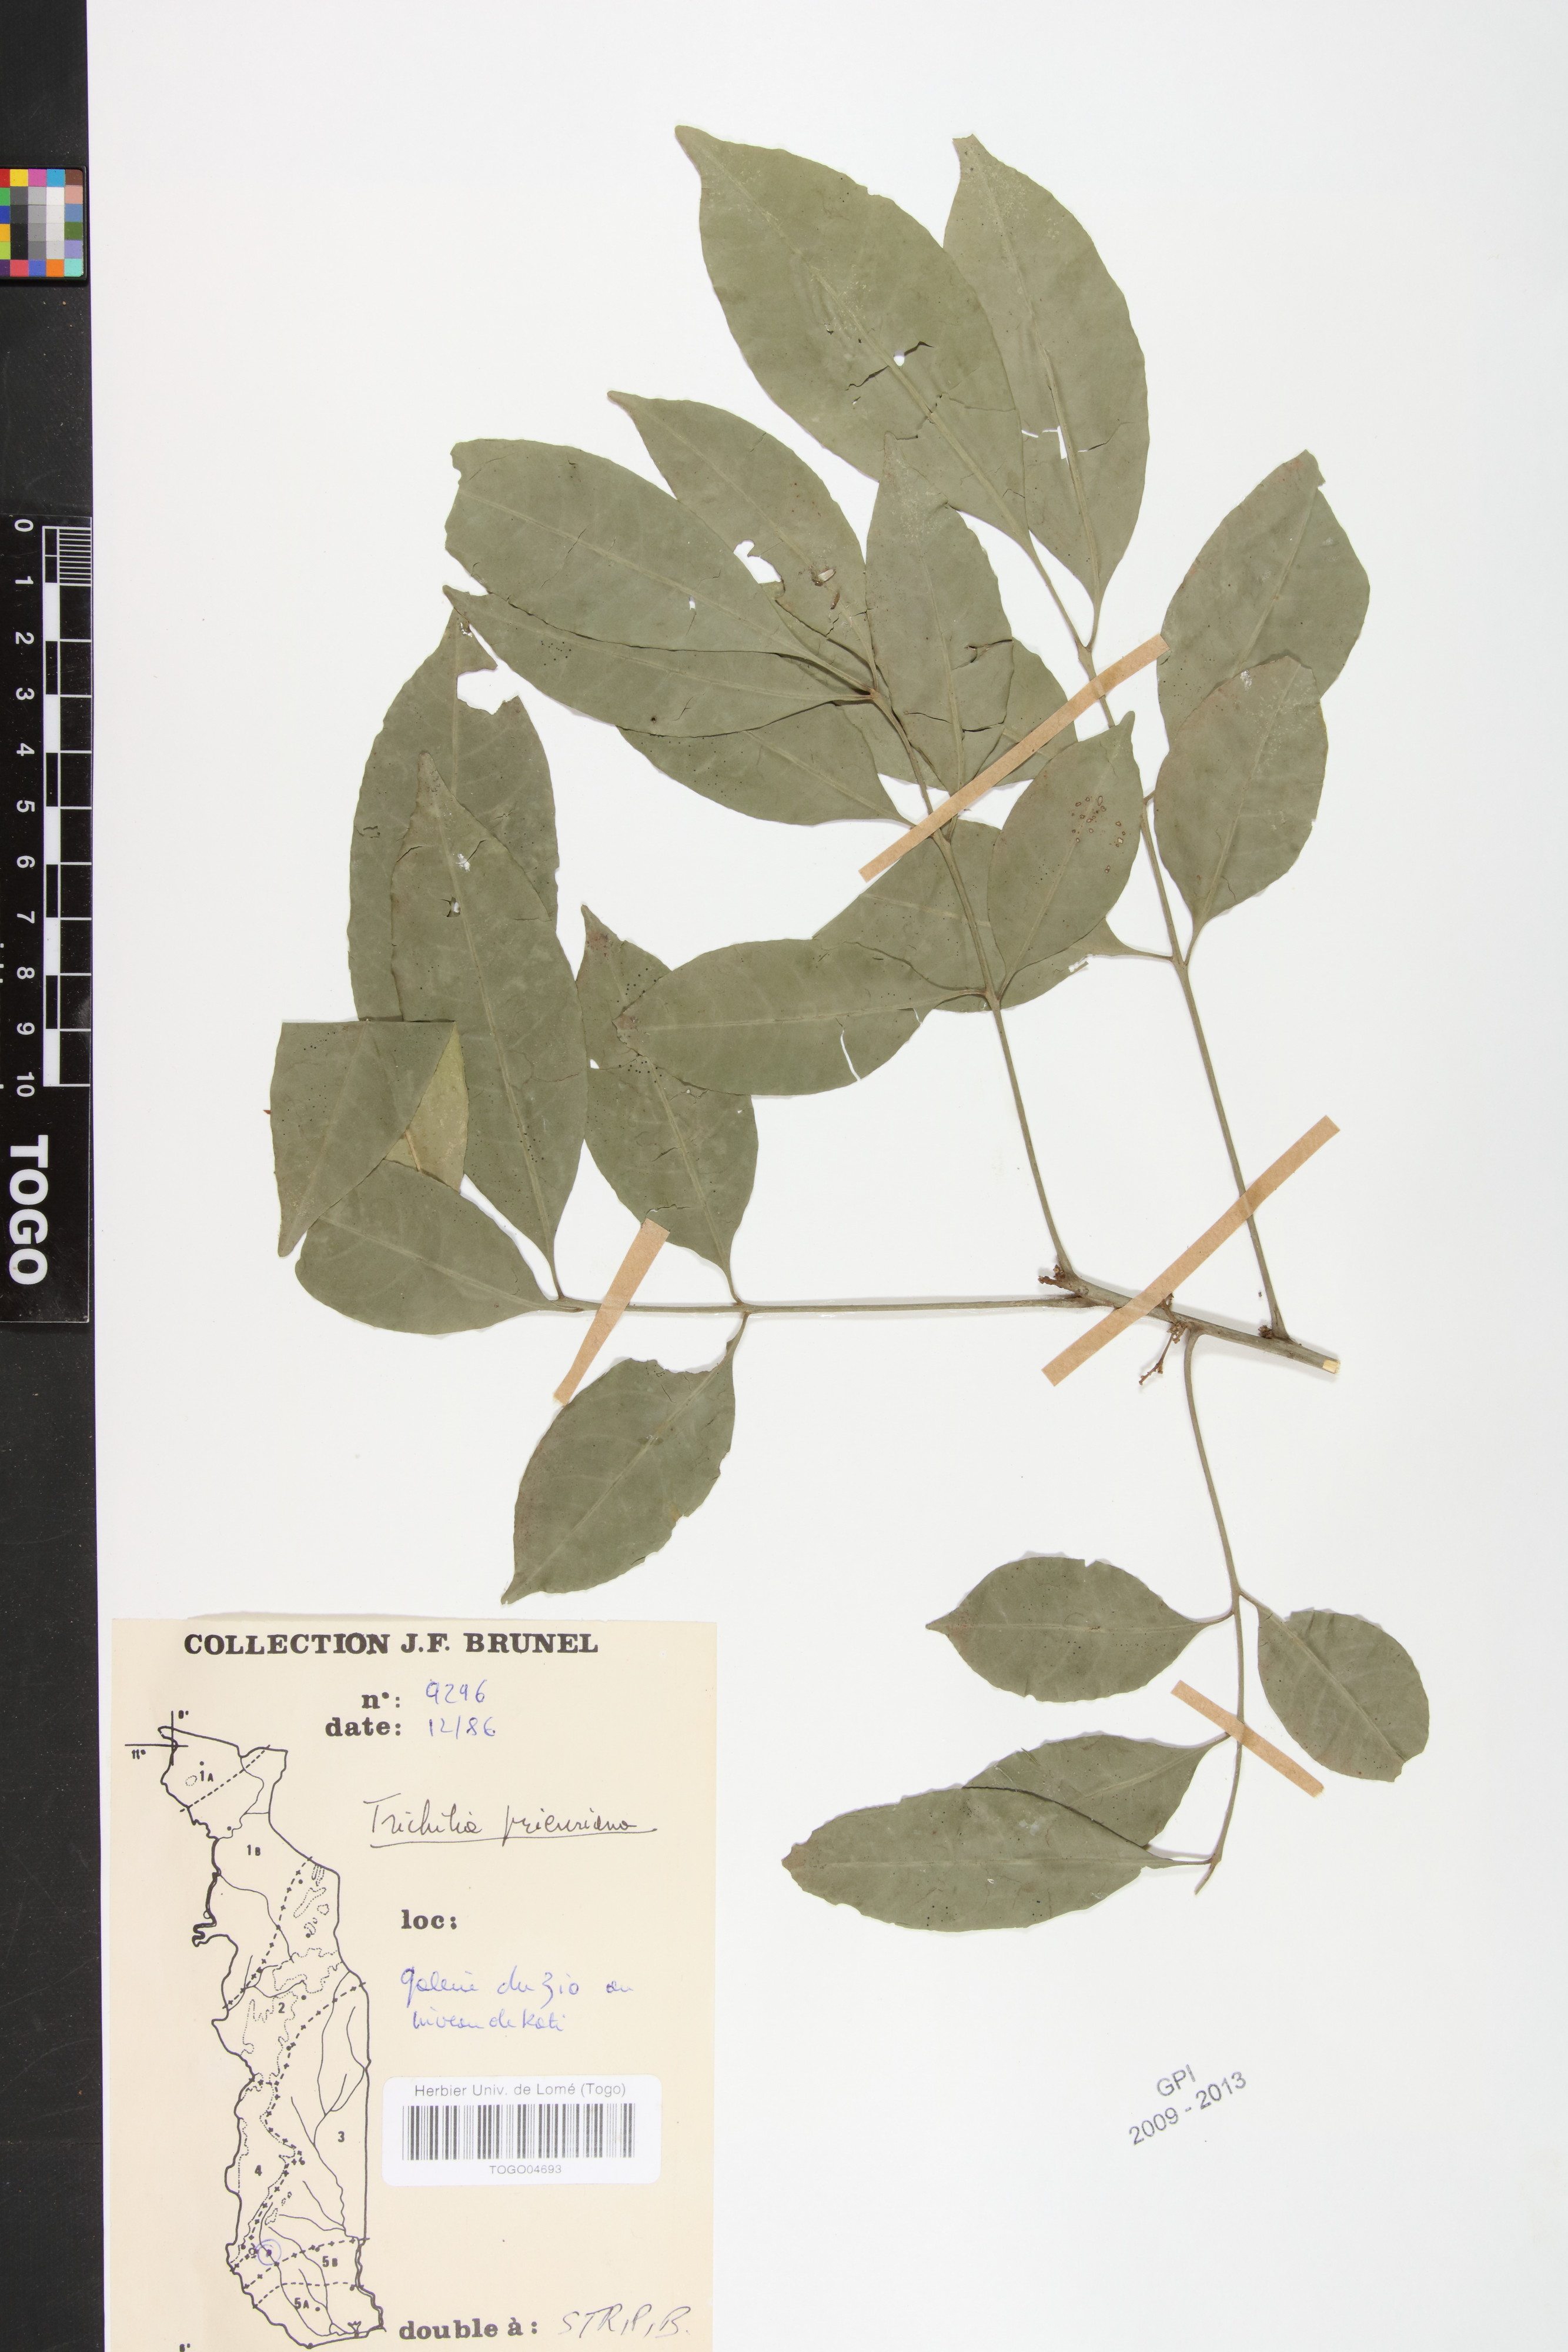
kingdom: Plantae
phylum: Tracheophyta
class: Magnoliopsida
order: Sapindales
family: Meliaceae
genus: Trichilia
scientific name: Trichilia prieureana
